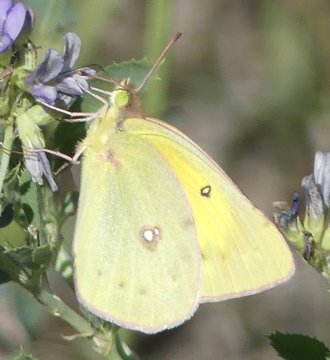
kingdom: Animalia
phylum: Arthropoda
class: Insecta
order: Lepidoptera
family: Pieridae
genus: Colias
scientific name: Colias philodice
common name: Clouded Sulphur
